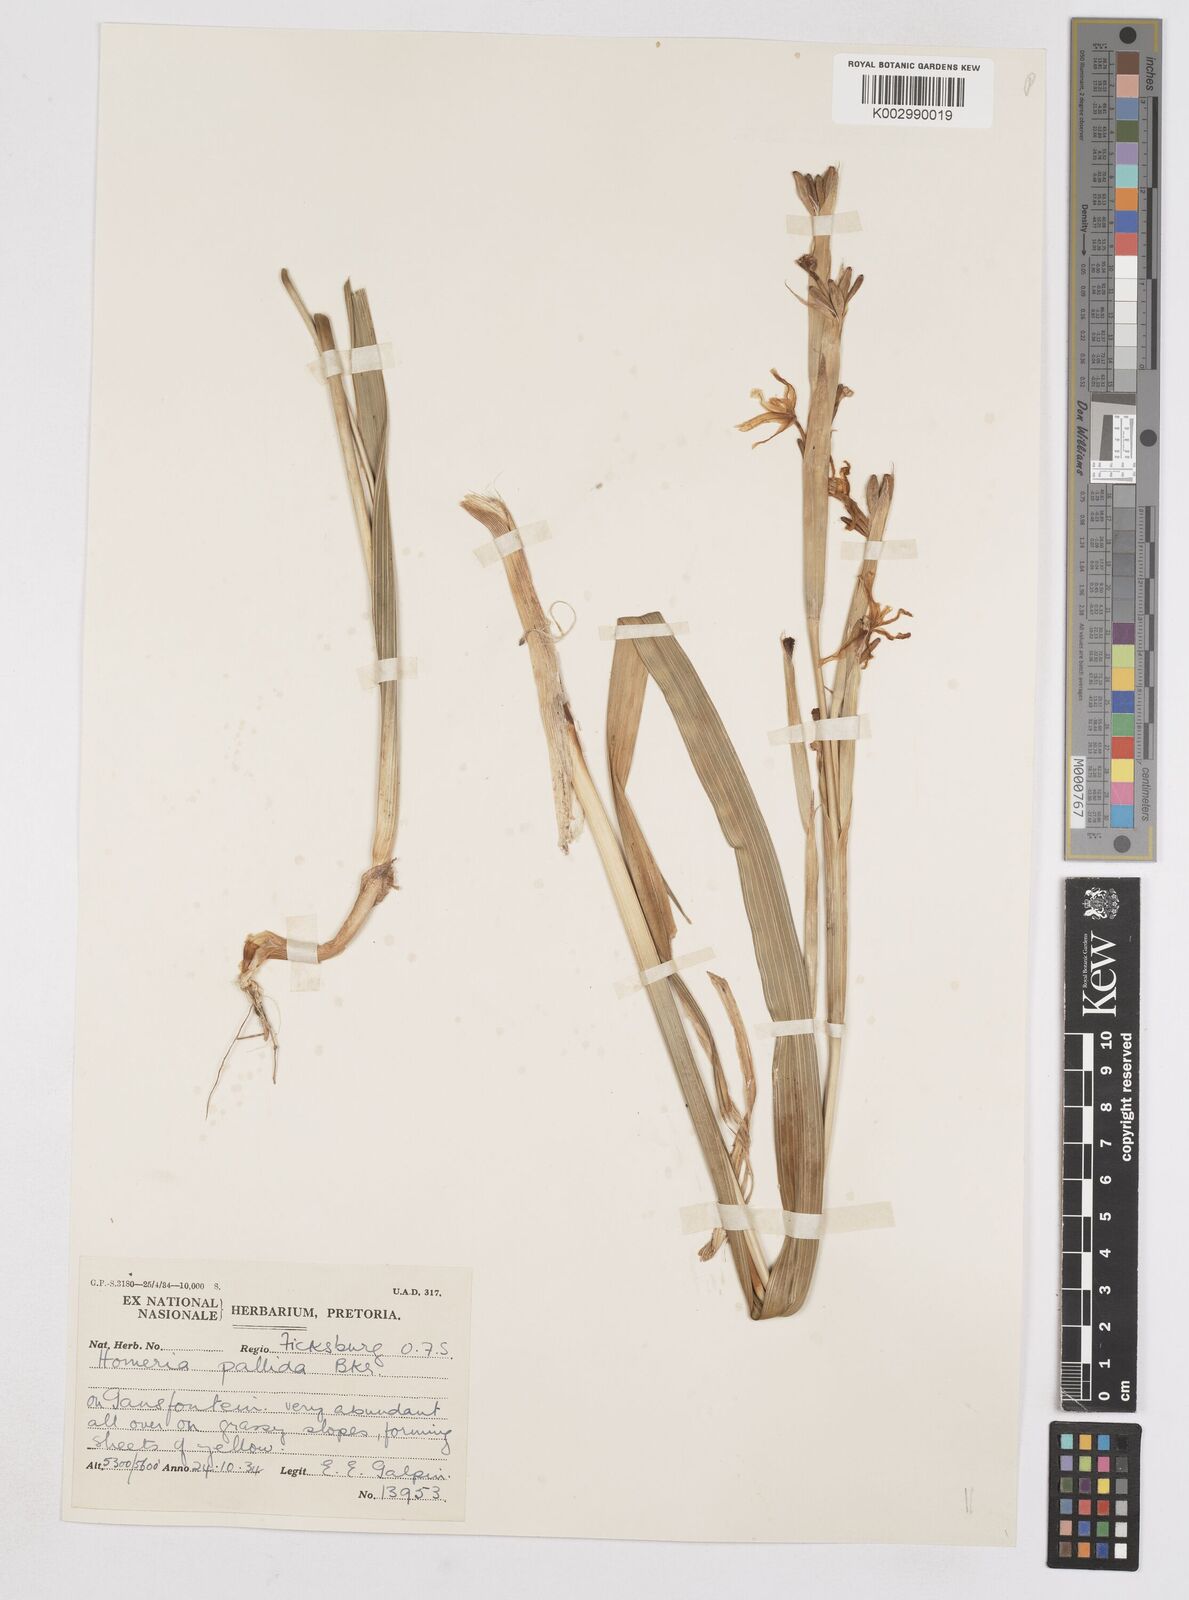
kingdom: Plantae
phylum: Tracheophyta
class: Liliopsida
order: Asparagales
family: Iridaceae
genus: Moraea
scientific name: Moraea pallida
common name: Yellow tulp
